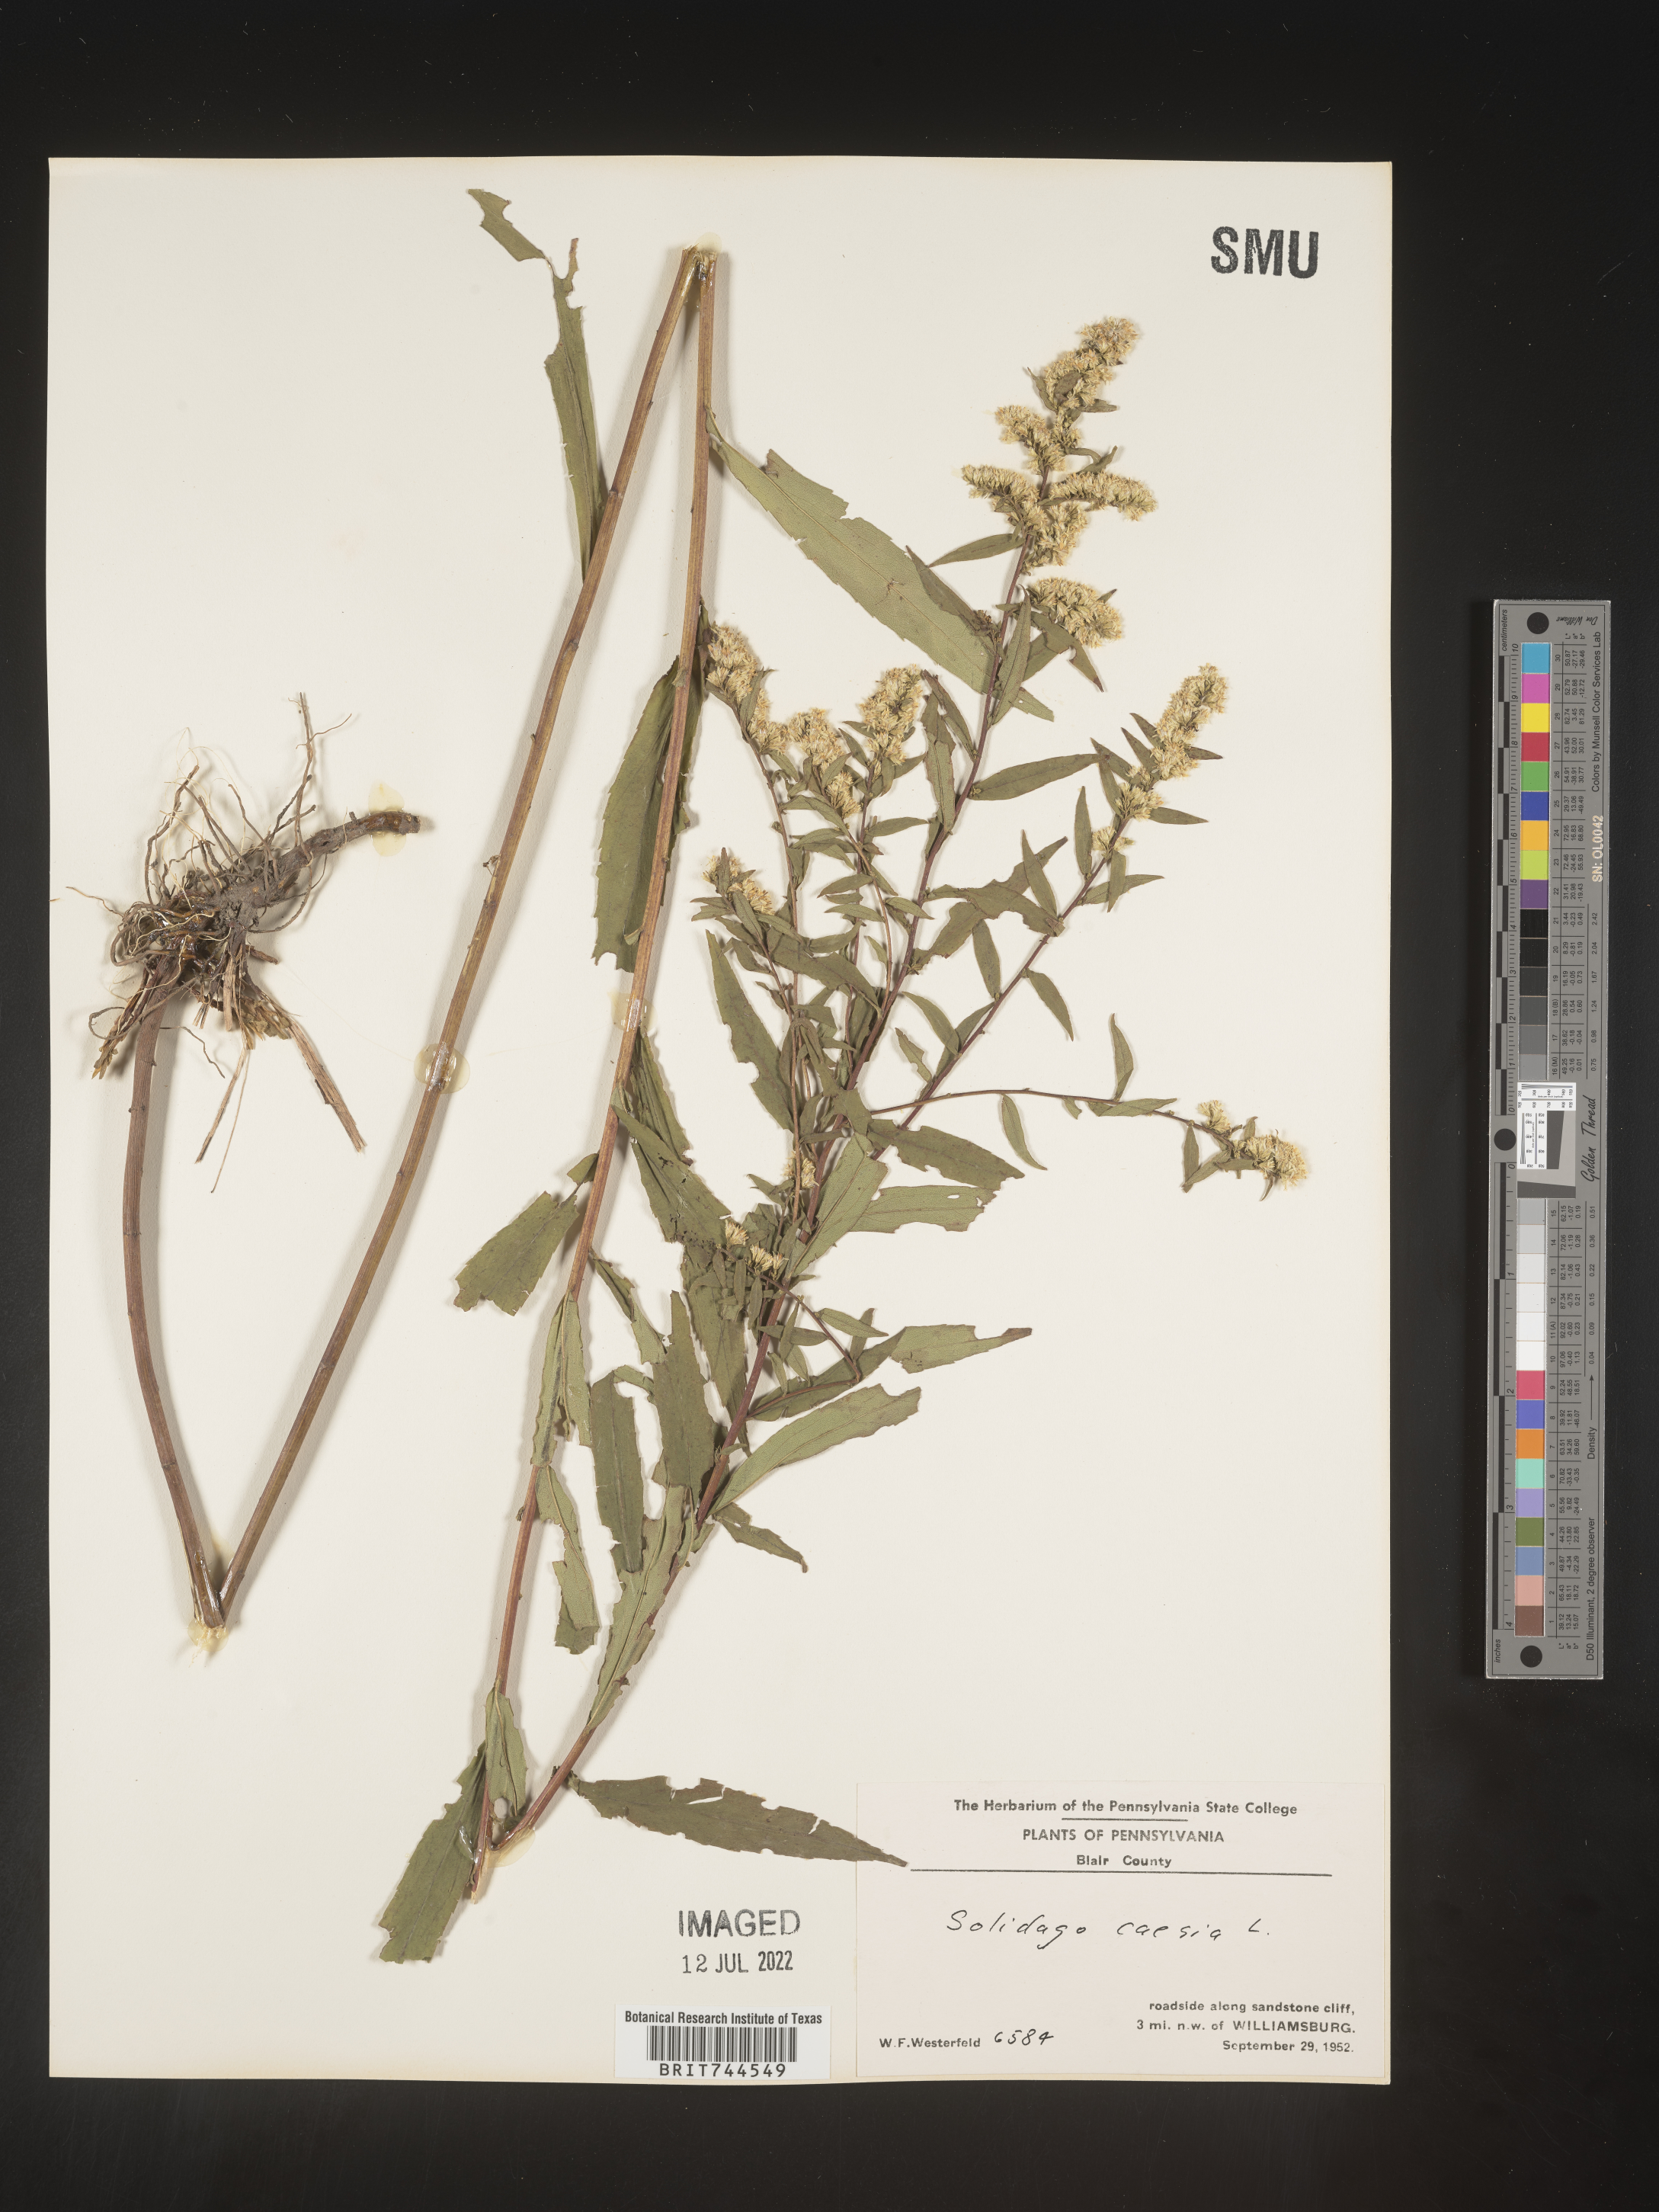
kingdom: Plantae
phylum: Tracheophyta
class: Magnoliopsida
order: Asterales
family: Asteraceae
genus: Solidago
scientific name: Solidago caesia
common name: Woodland goldenrod
